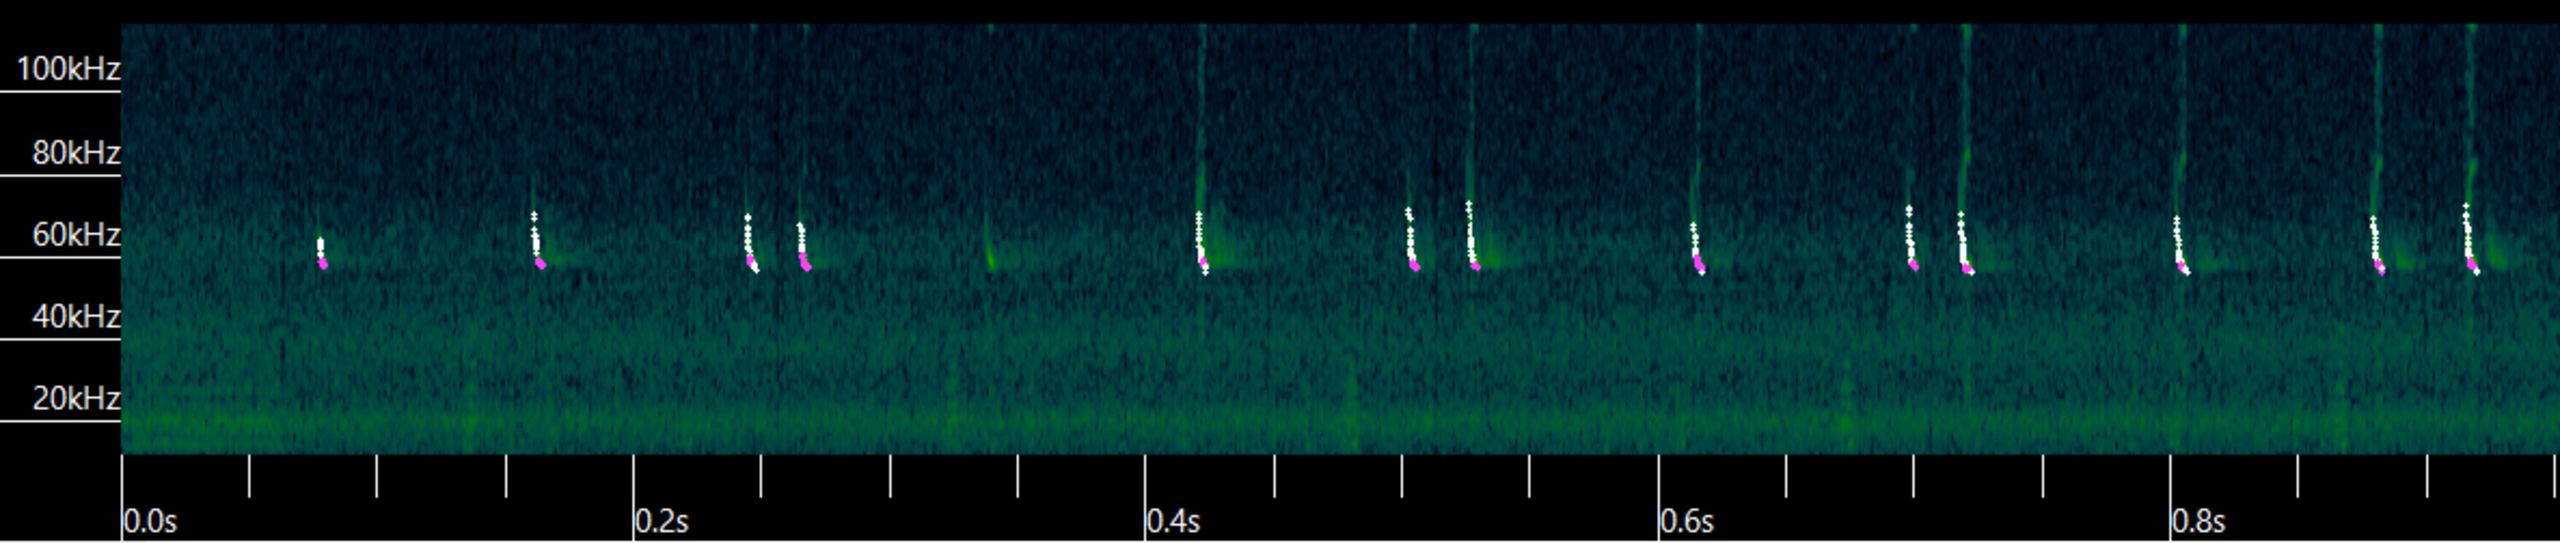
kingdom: Animalia
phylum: Chordata
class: Mammalia
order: Chiroptera
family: Vespertilionidae
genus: Pipistrellus
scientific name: Pipistrellus pygmaeus
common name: Dværgflagermus
